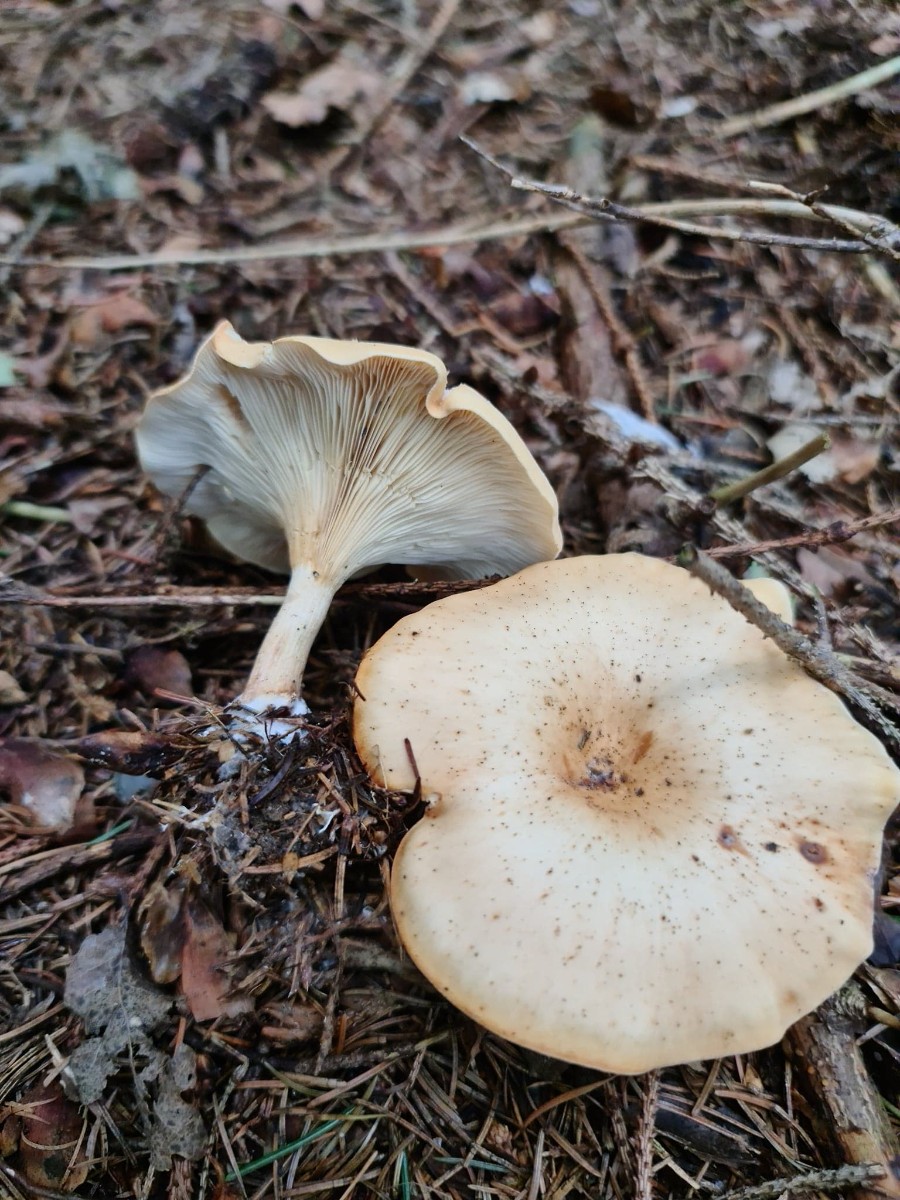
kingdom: Fungi
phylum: Basidiomycota
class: Agaricomycetes
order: Agaricales
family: Tricholomataceae
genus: Paralepista
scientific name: Paralepista flaccida
